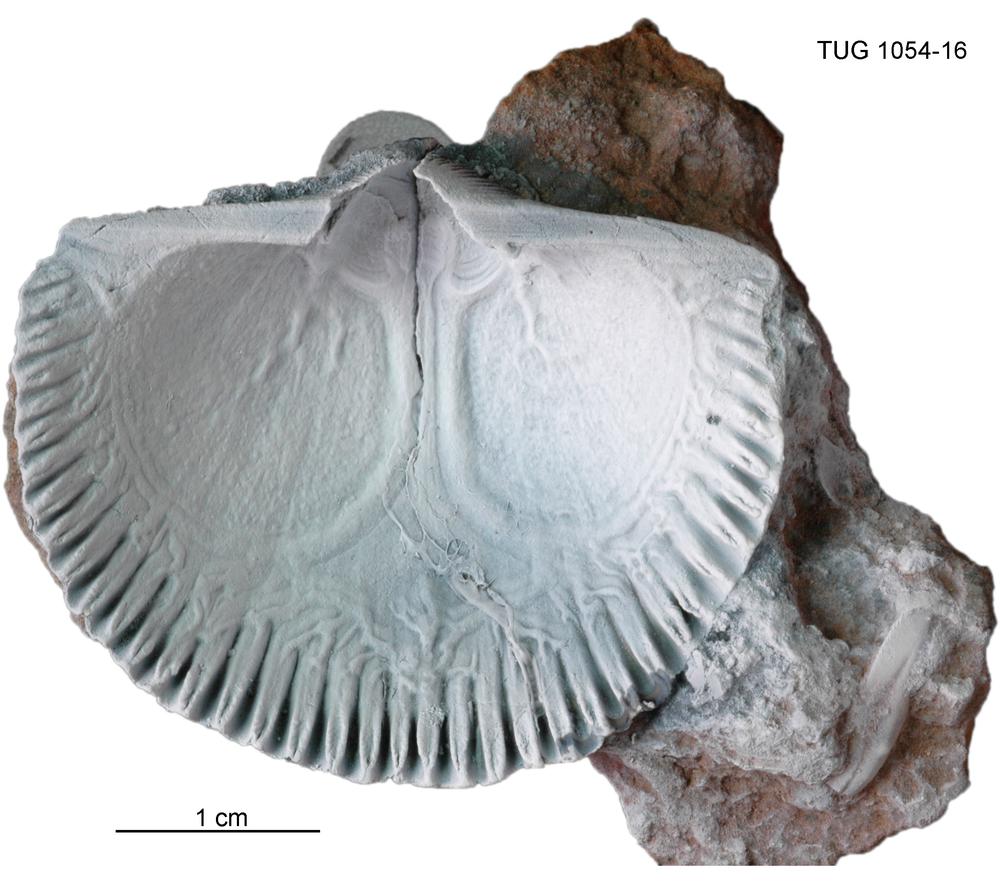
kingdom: Animalia
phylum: Brachiopoda
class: Rhynchonellata
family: Orthidae
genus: Cyrtonotella
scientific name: Cyrtonotella Orthis kuckersiana
